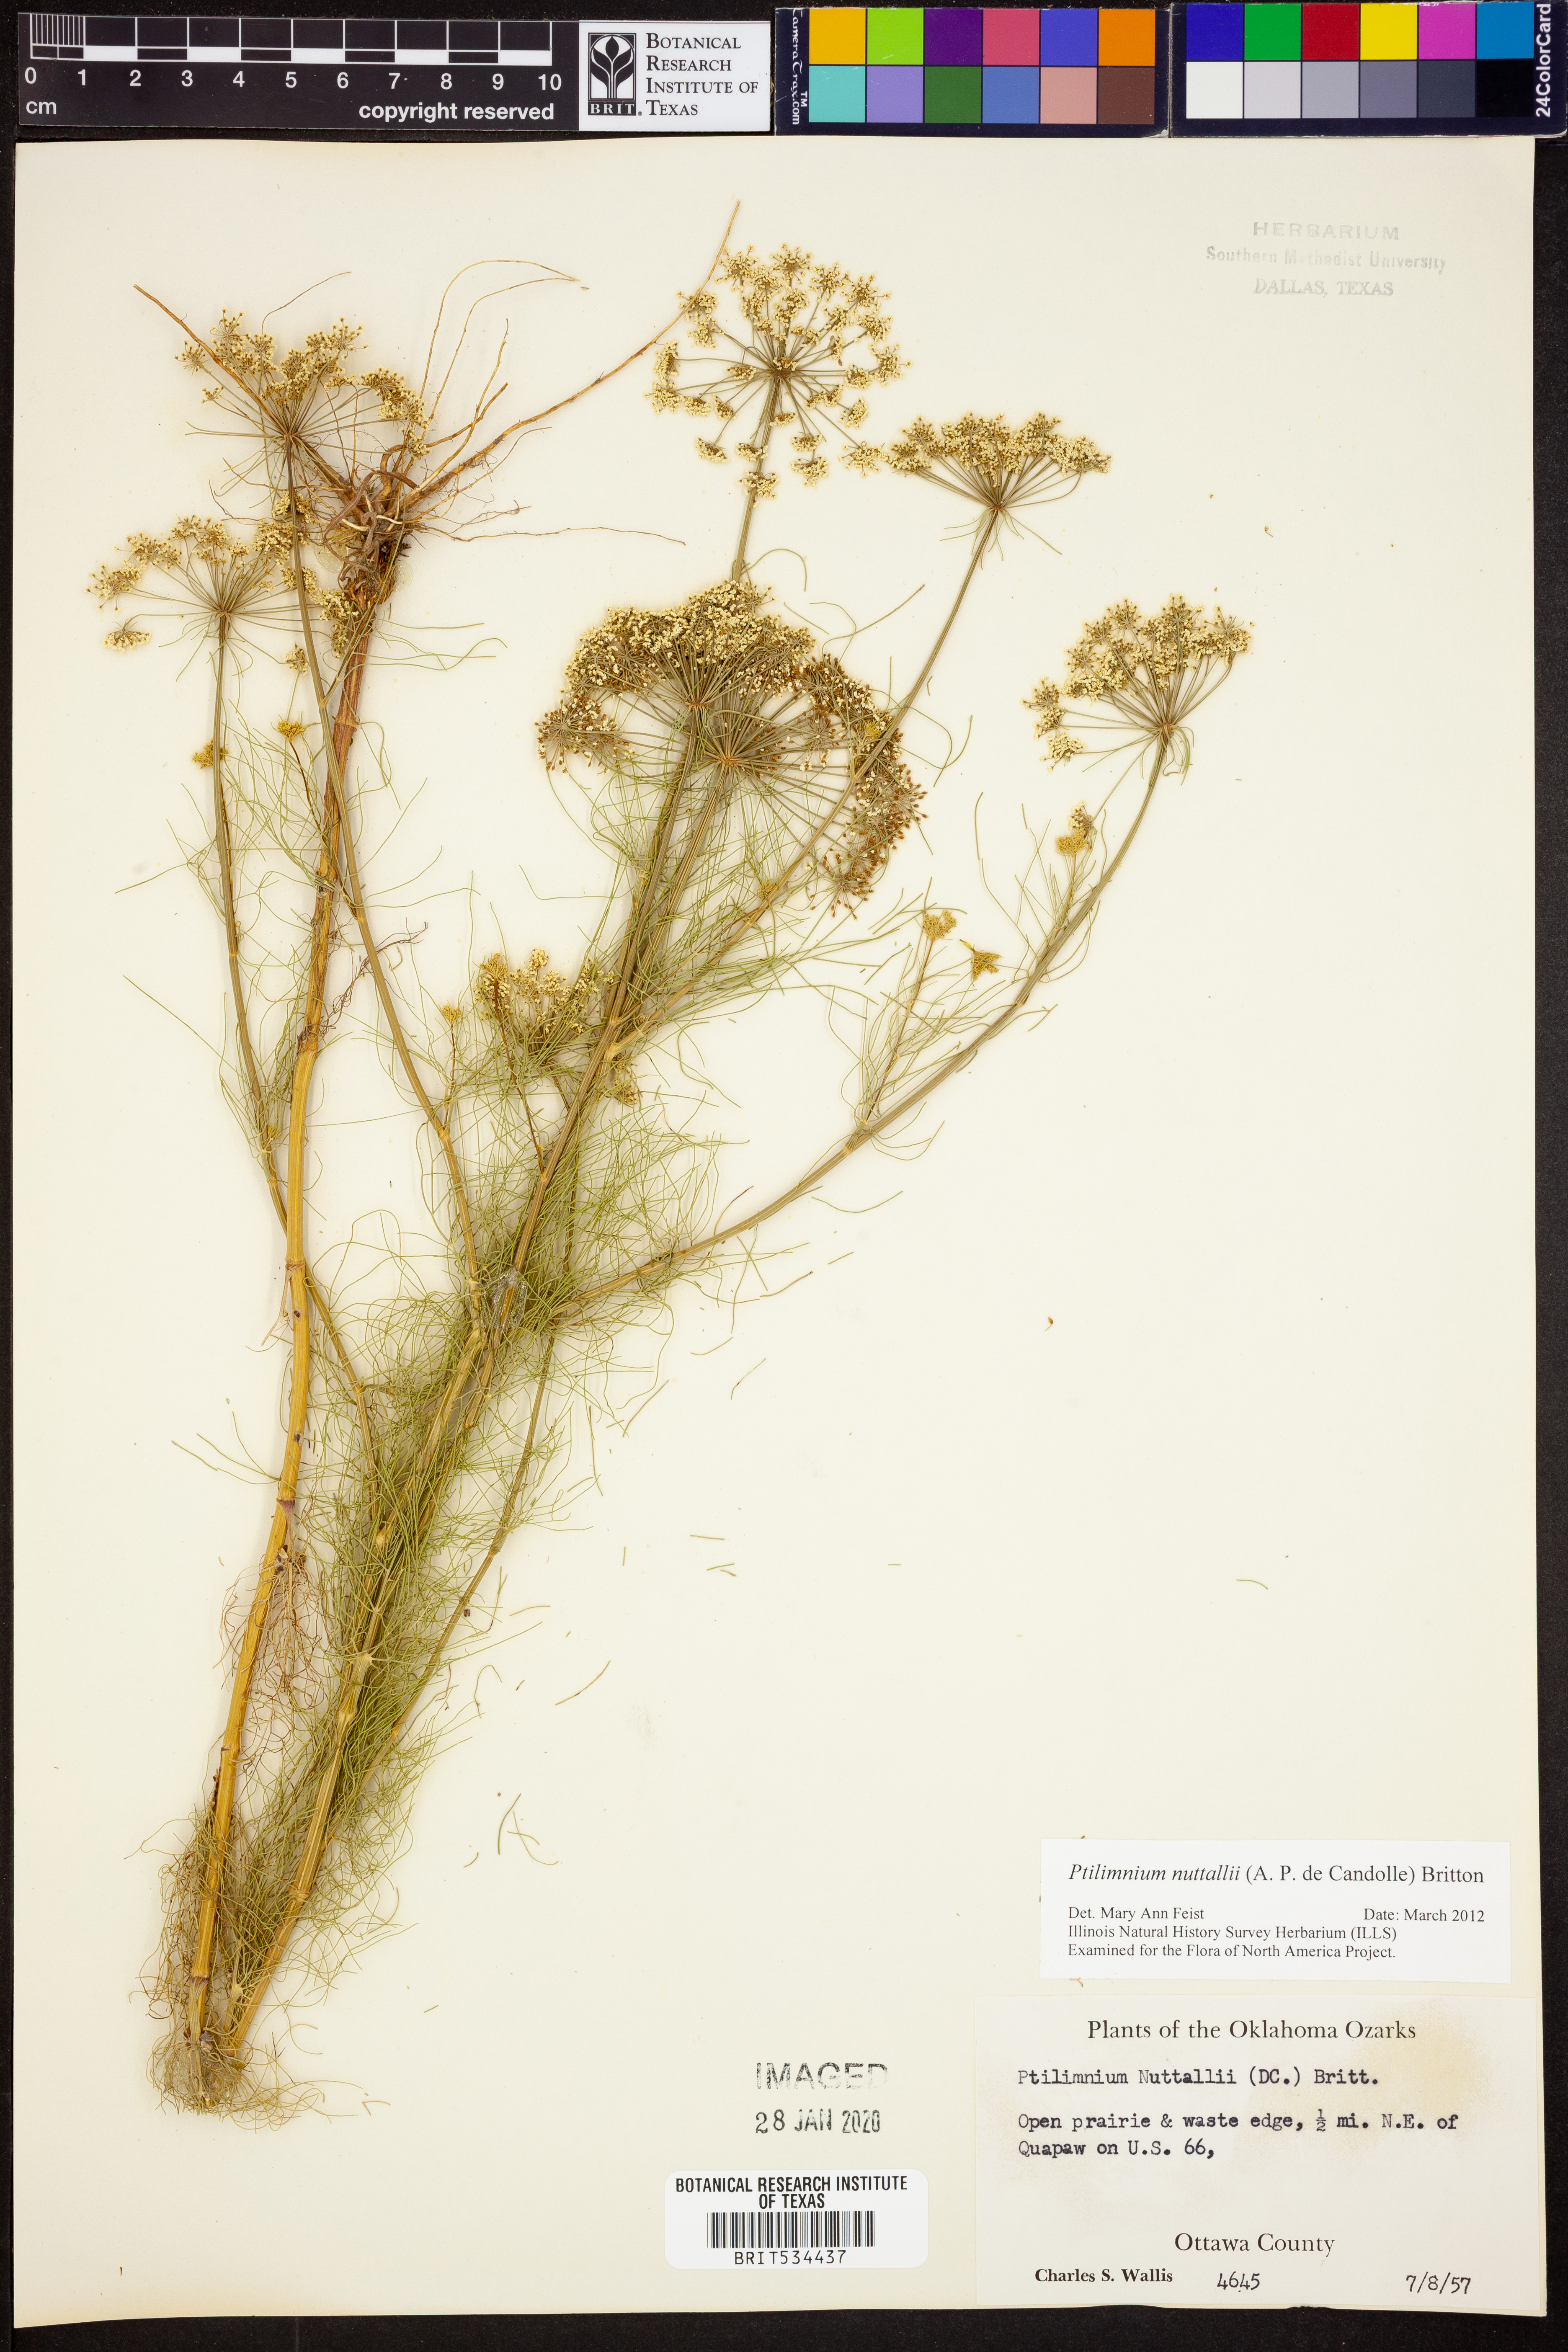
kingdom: Plantae
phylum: Tracheophyta
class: Magnoliopsida
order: Apiales
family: Apiaceae
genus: Ptilimnium
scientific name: Ptilimnium nuttallii
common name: Ozark bishop's-weed
